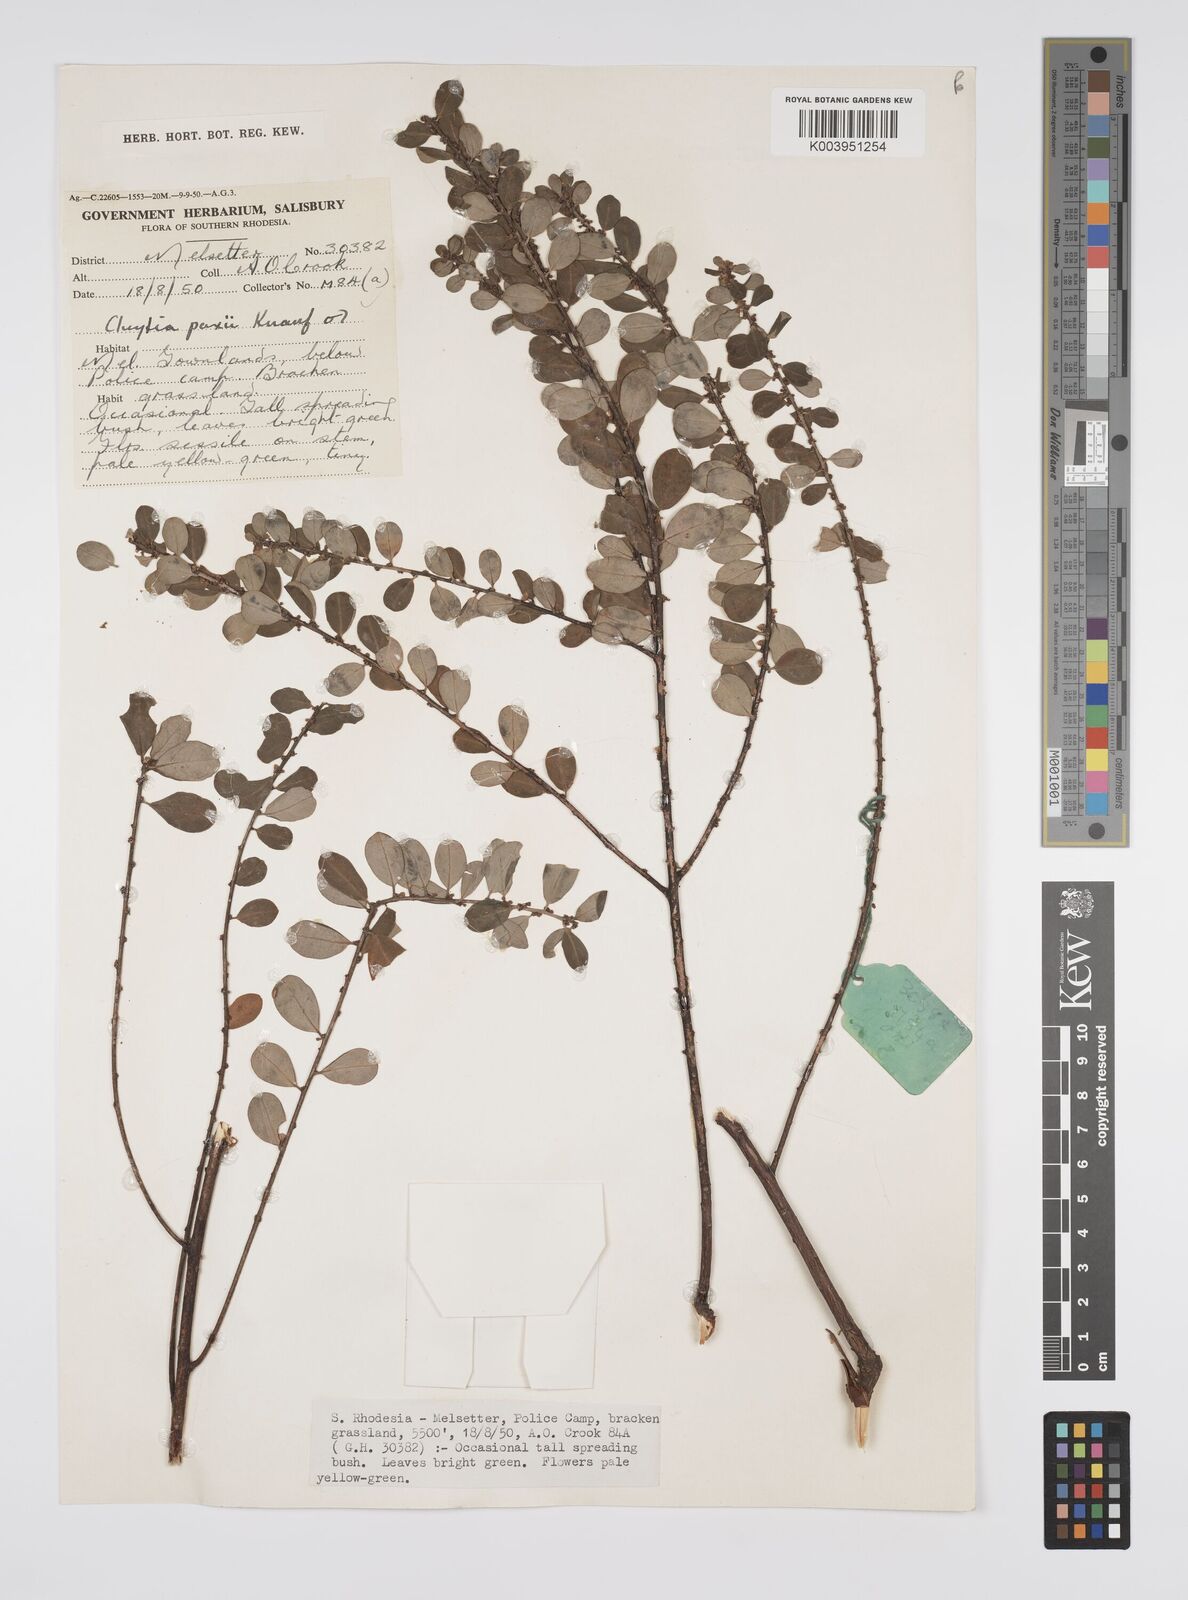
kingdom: Plantae
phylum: Tracheophyta
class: Magnoliopsida
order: Malpighiales
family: Peraceae
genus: Clutia
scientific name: Clutia paxii
